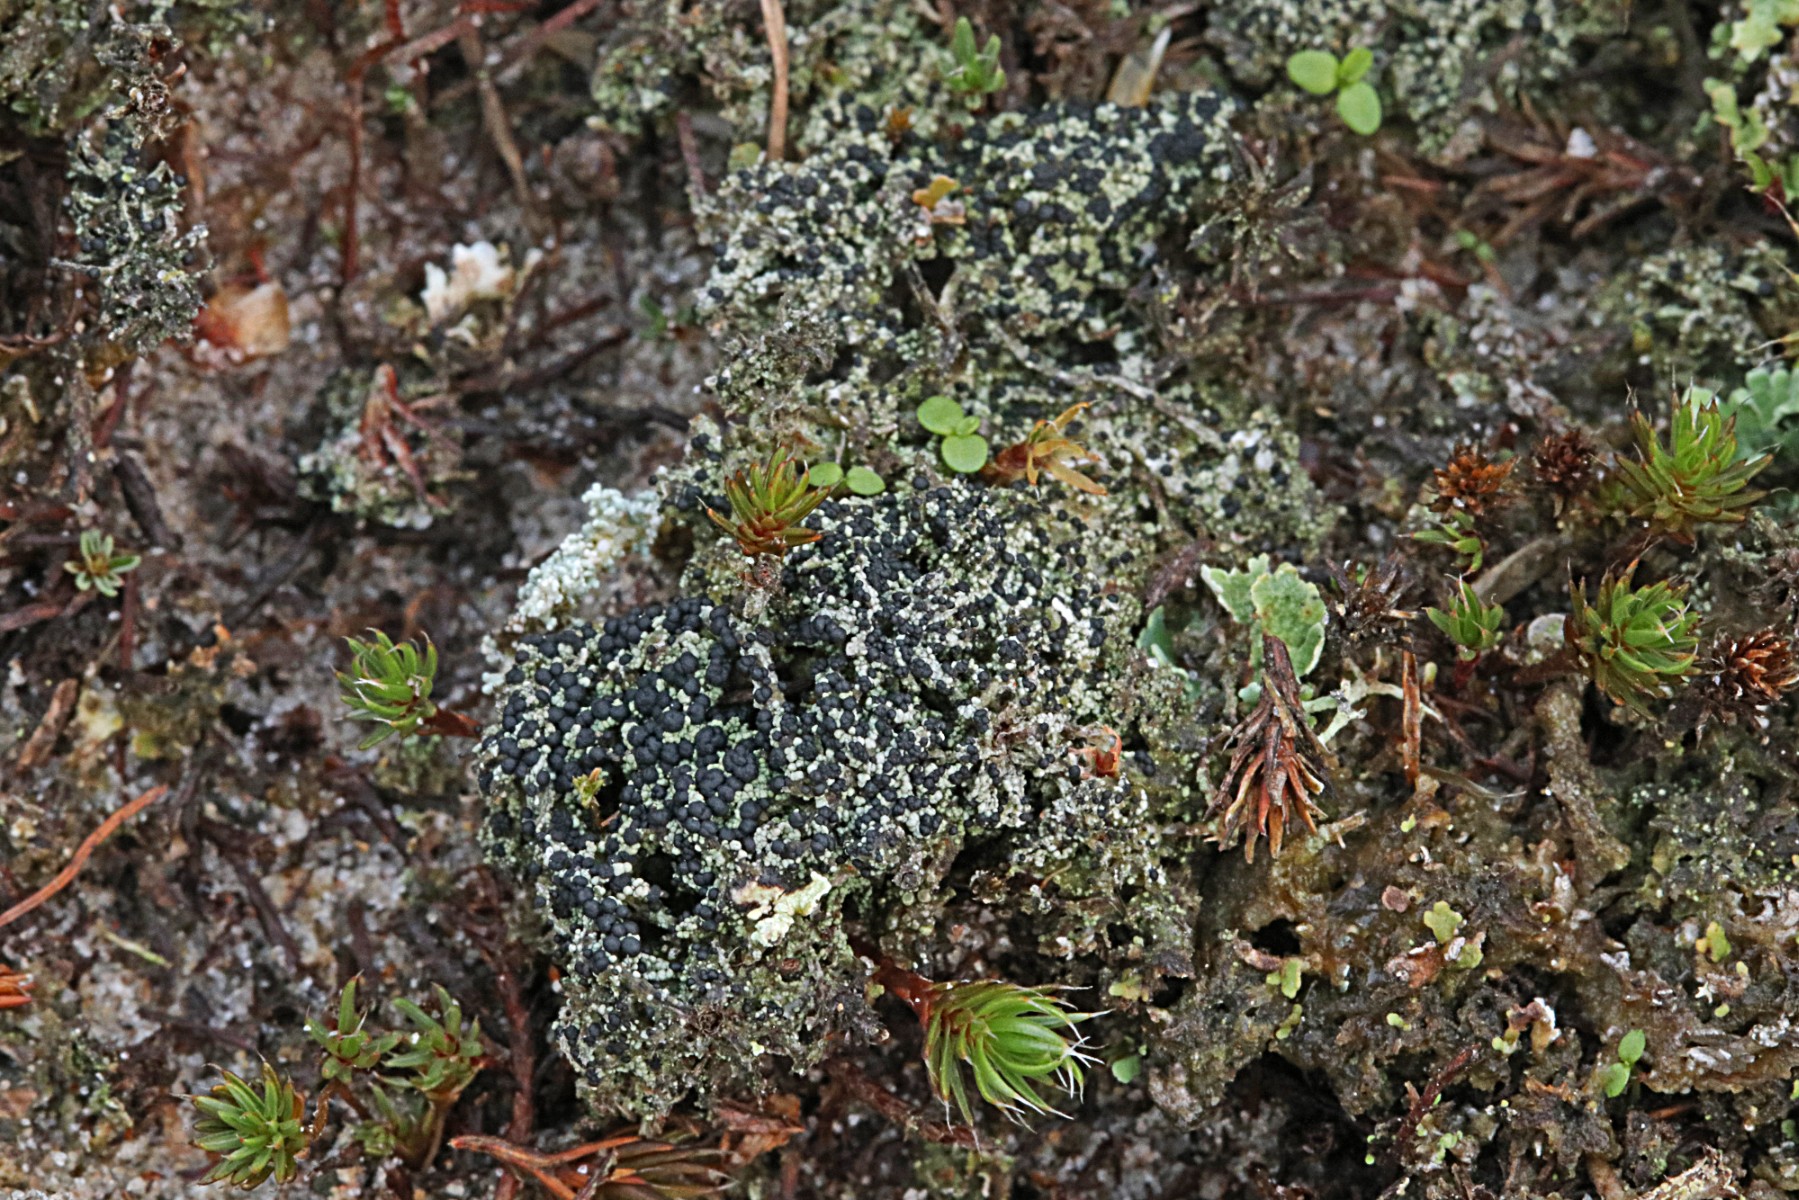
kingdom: Fungi
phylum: Ascomycota
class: Lecanoromycetes
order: Lecanorales
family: Byssolomataceae
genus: Micarea
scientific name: Micarea lignaria
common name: tørve-knaplav
